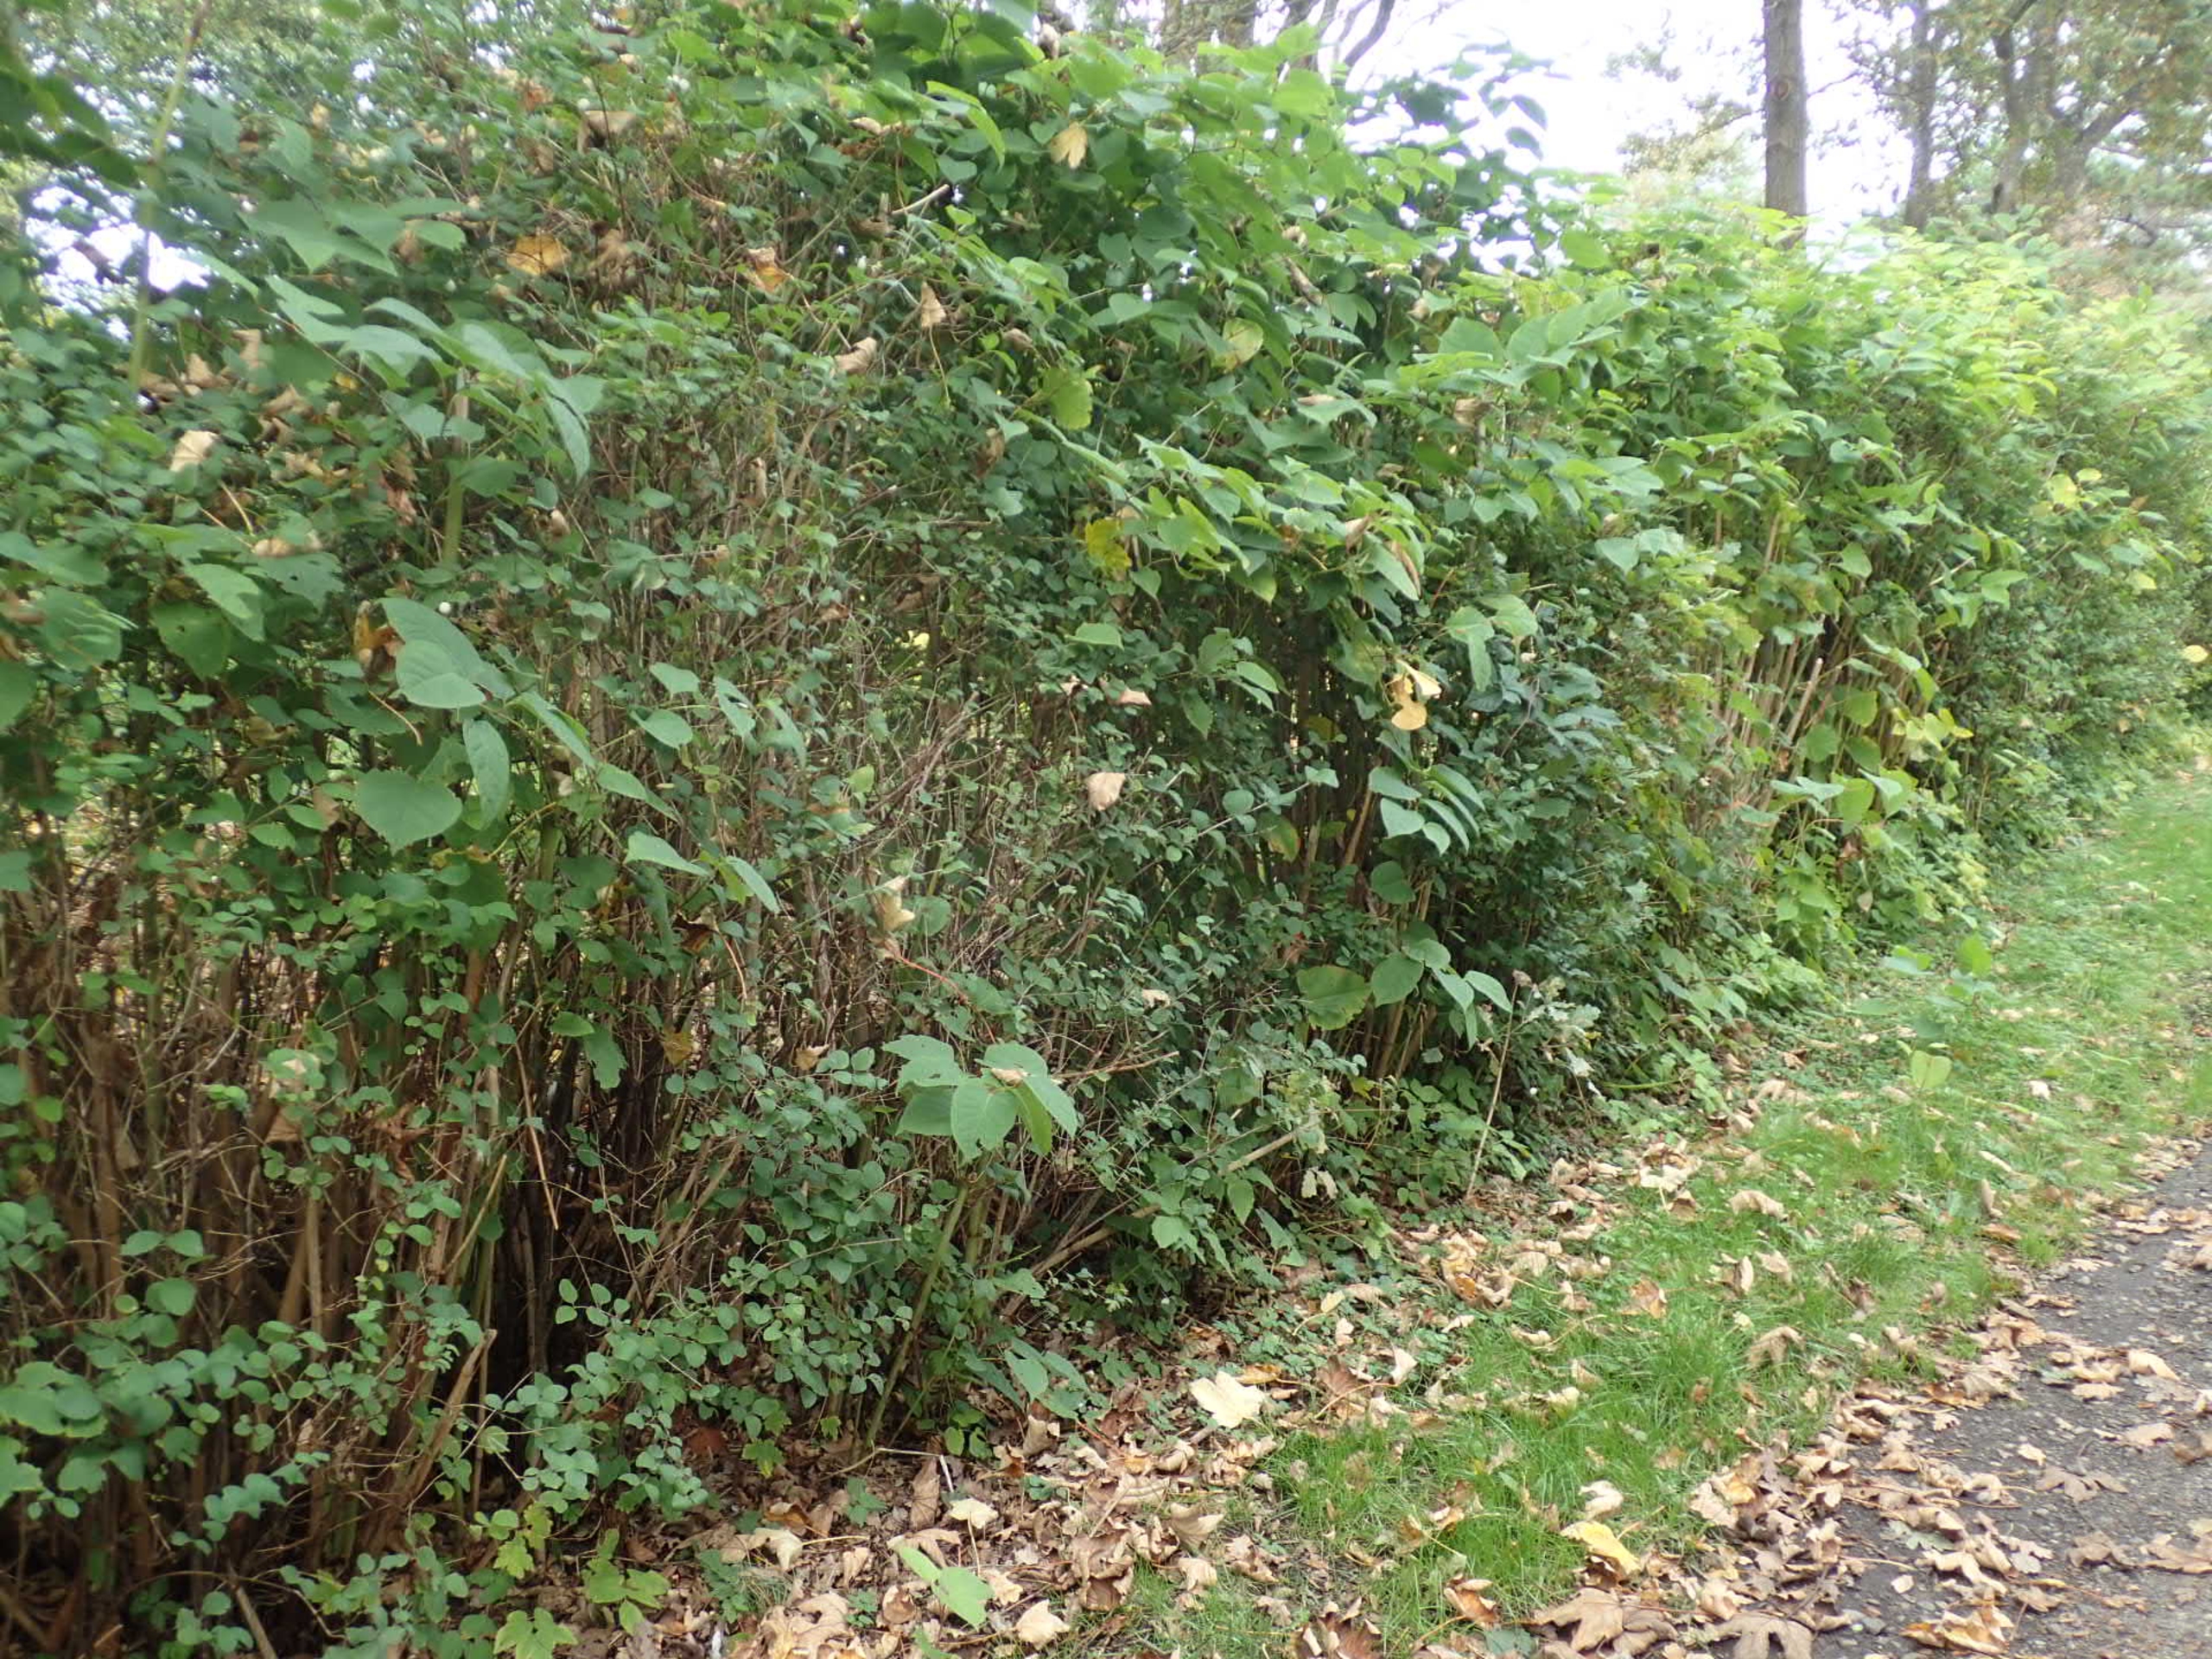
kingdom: Plantae
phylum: Tracheophyta
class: Magnoliopsida
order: Caryophyllales
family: Polygonaceae
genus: Reynoutria
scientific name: Reynoutria japonica
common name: Japan-pileurt
